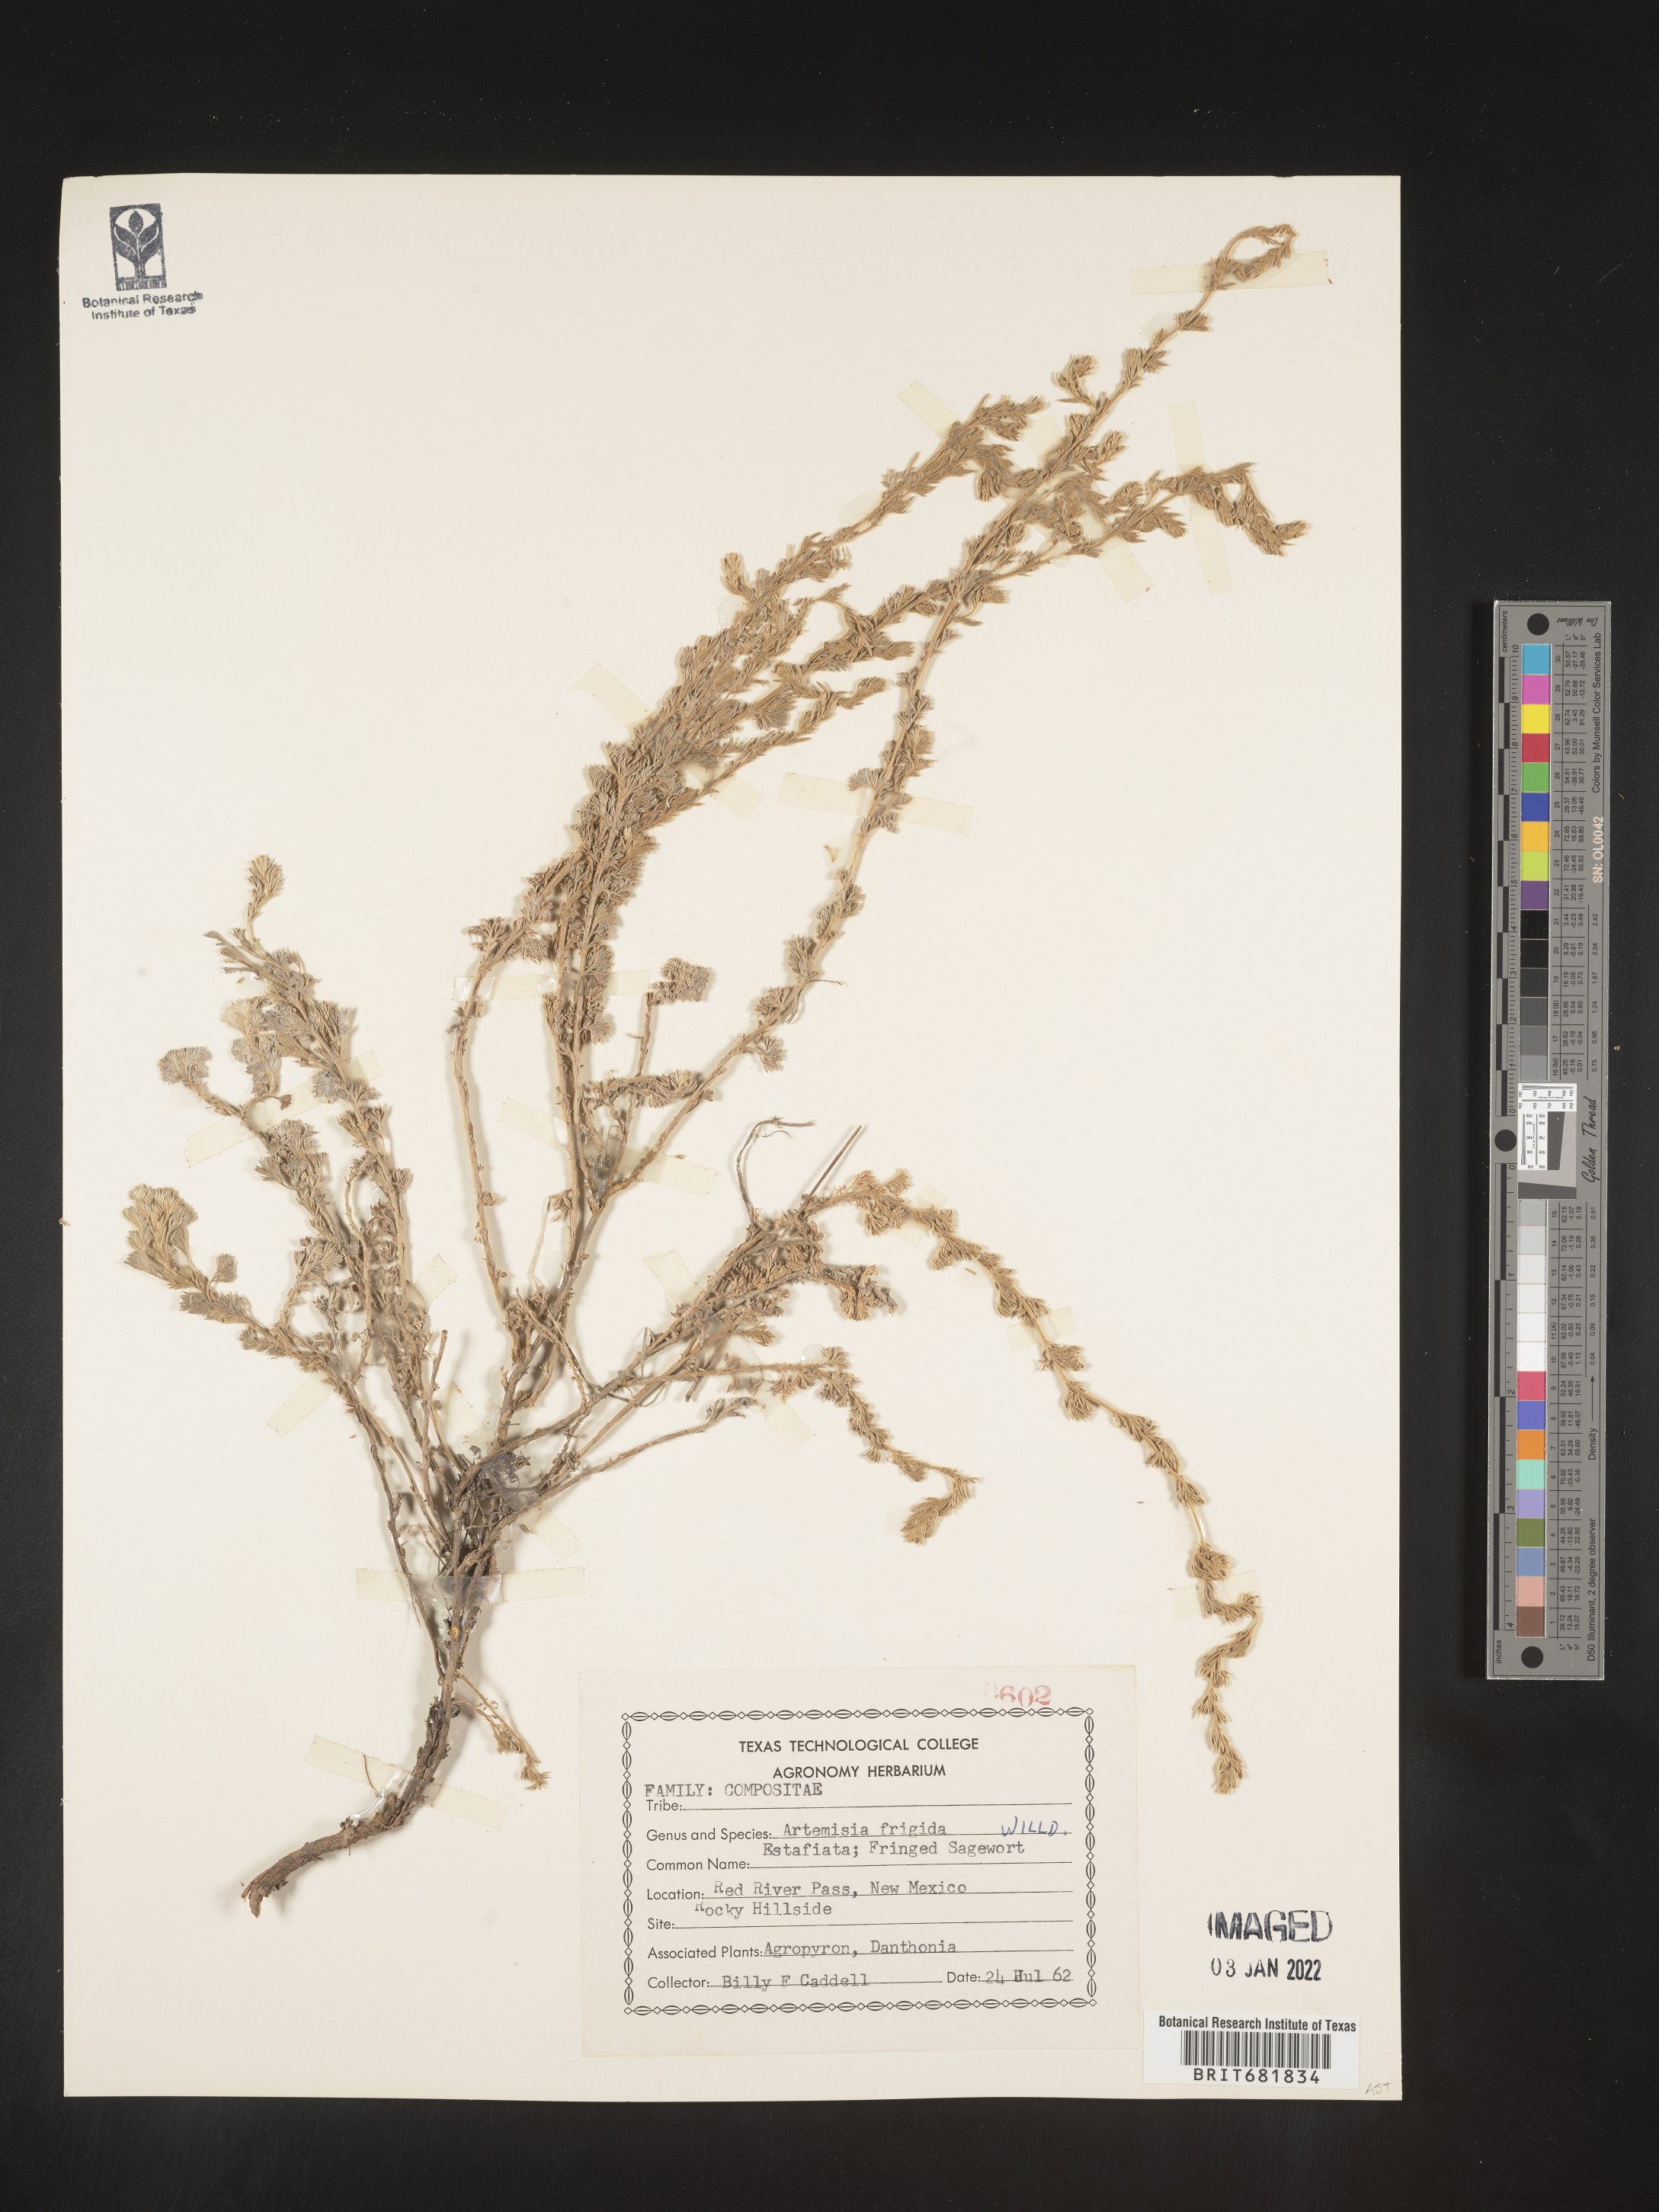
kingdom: Plantae
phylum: Tracheophyta
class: Magnoliopsida
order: Asterales
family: Asteraceae
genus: Artemisia
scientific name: Artemisia frigida
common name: Prairie sagewort
